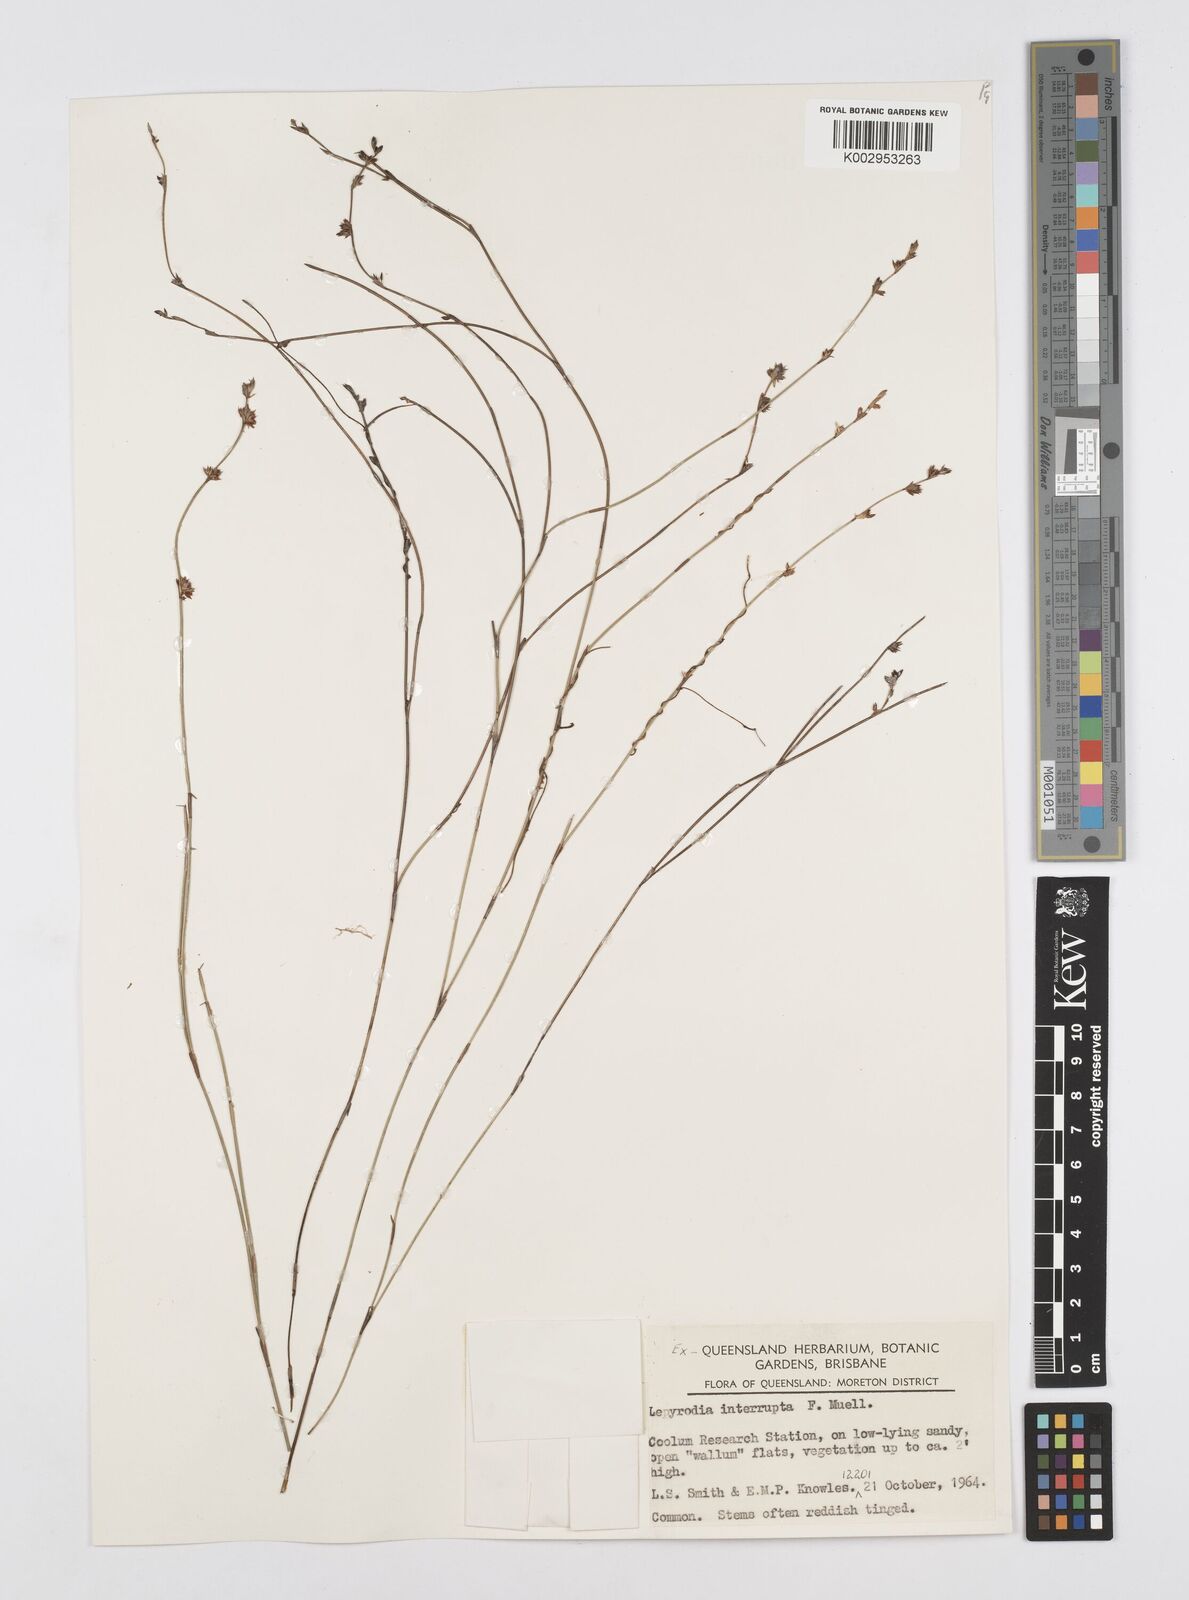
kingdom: Plantae
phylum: Tracheophyta
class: Liliopsida
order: Poales
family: Restionaceae
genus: Sporadanthus
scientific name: Sporadanthus interruptus
